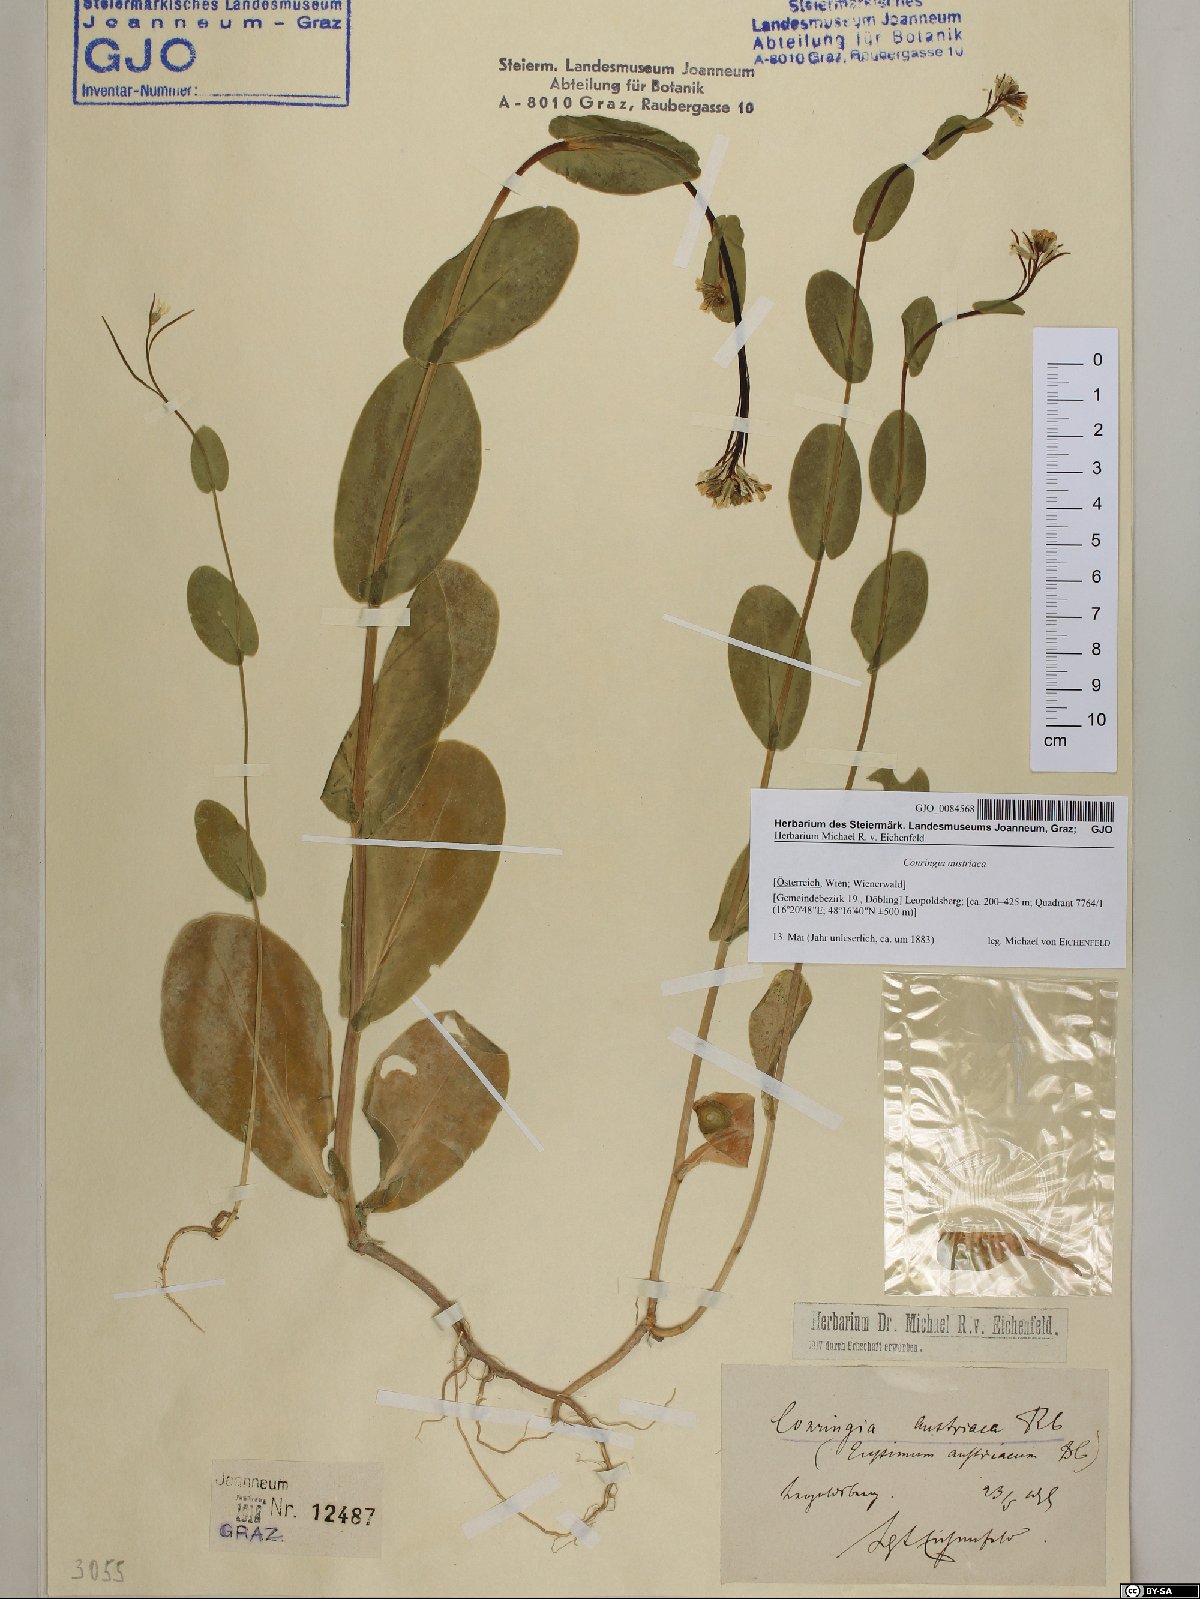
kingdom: Plantae
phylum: Tracheophyta
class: Magnoliopsida
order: Brassicales
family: Brassicaceae
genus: Conringia
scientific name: Conringia austriaca
